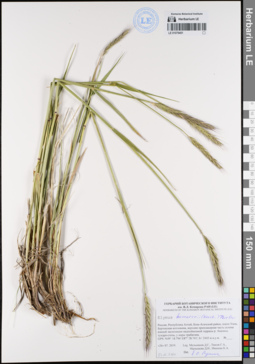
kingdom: Plantae
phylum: Tracheophyta
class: Liliopsida
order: Poales
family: Poaceae
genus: Elymus
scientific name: Elymus uralensis
